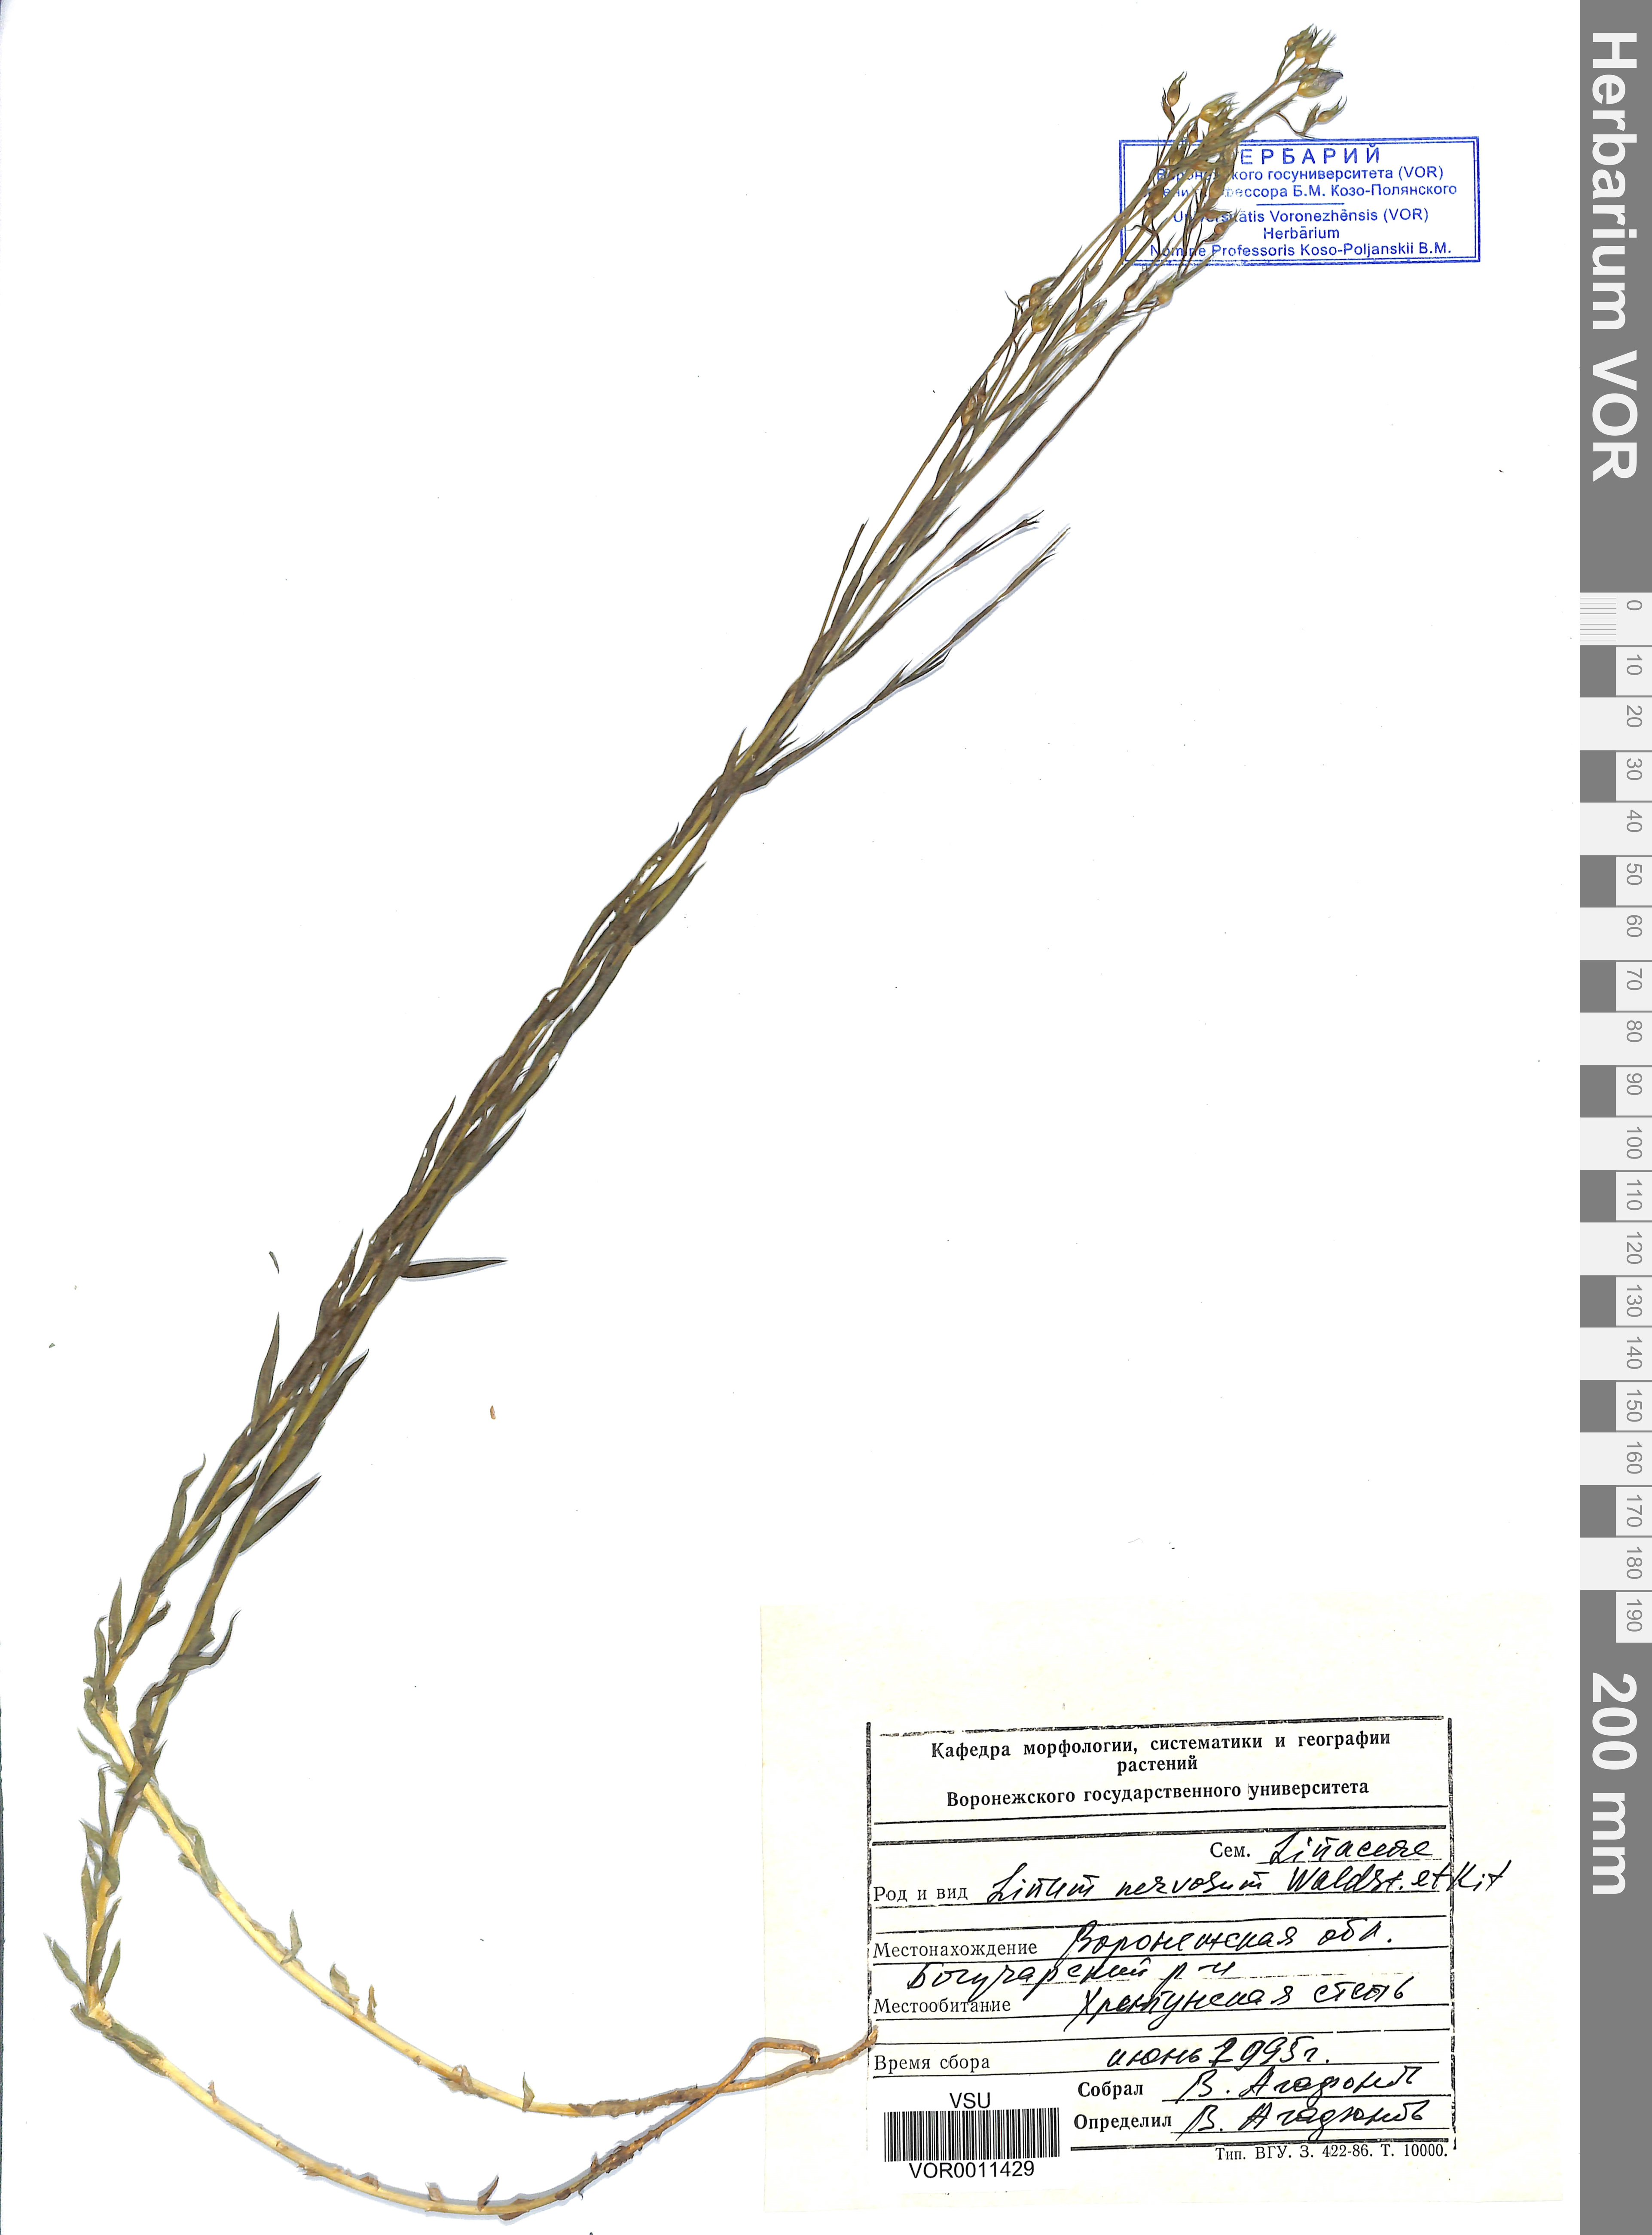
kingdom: Plantae
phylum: Tracheophyta
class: Magnoliopsida
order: Malpighiales
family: Linaceae
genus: Linum
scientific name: Linum nervosum
